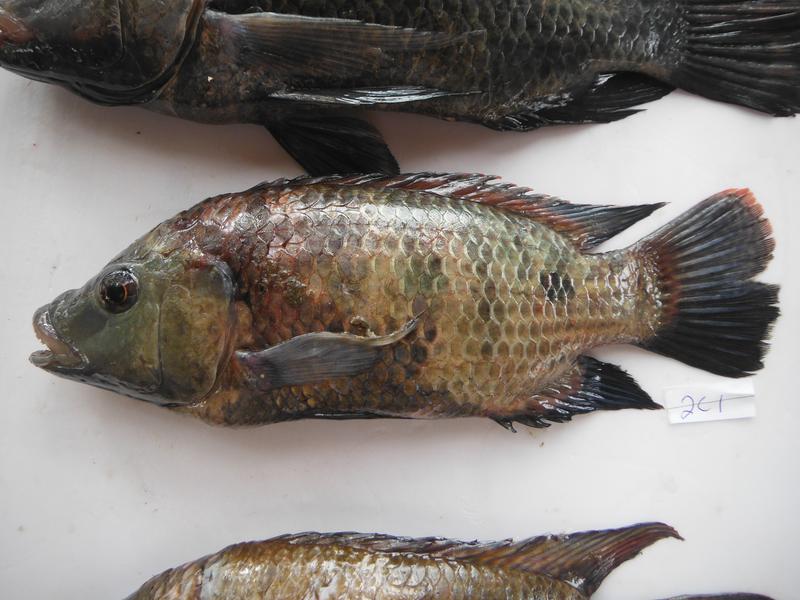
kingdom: Animalia
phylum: Chordata
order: Perciformes
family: Cichlidae
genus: Oreochromis
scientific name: Oreochromis urolepis
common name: Wami tilapia
